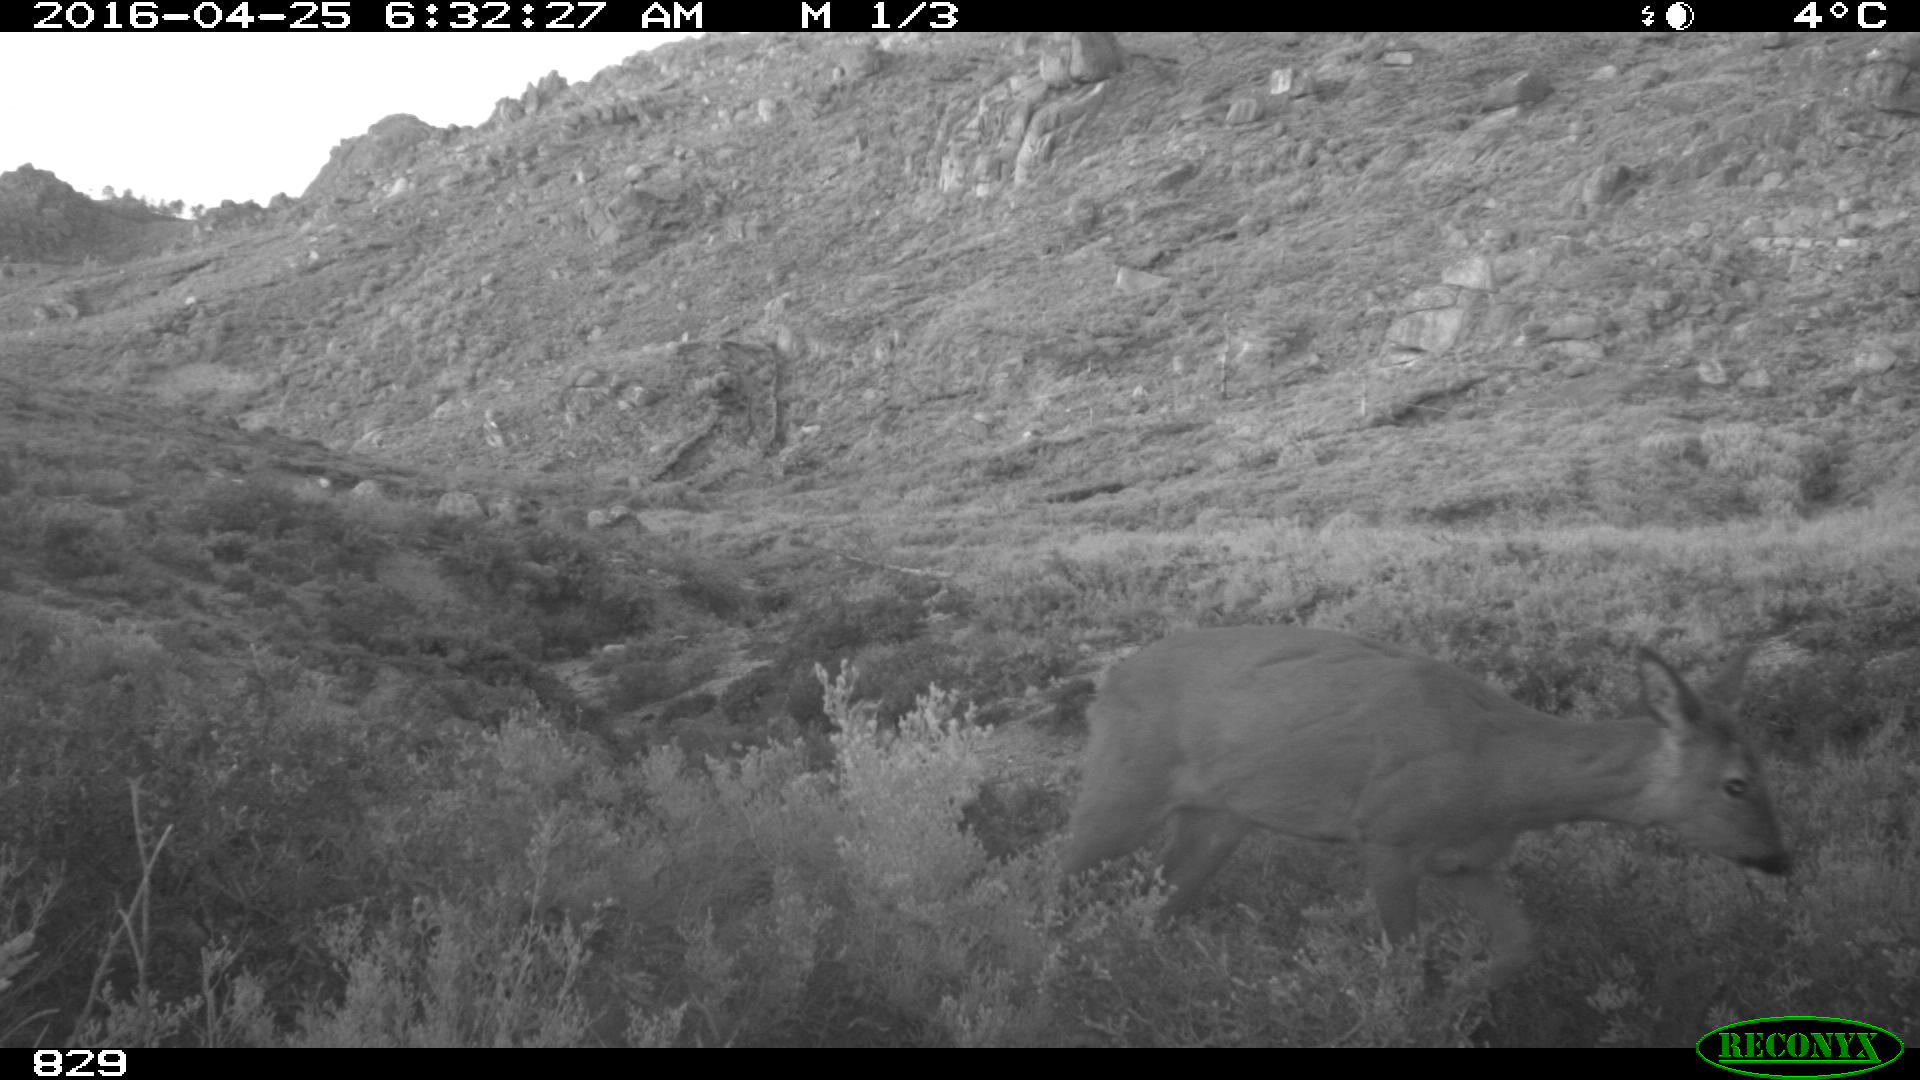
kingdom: Animalia
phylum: Chordata
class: Mammalia
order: Artiodactyla
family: Cervidae
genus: Capreolus
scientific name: Capreolus capreolus
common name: Western roe deer
